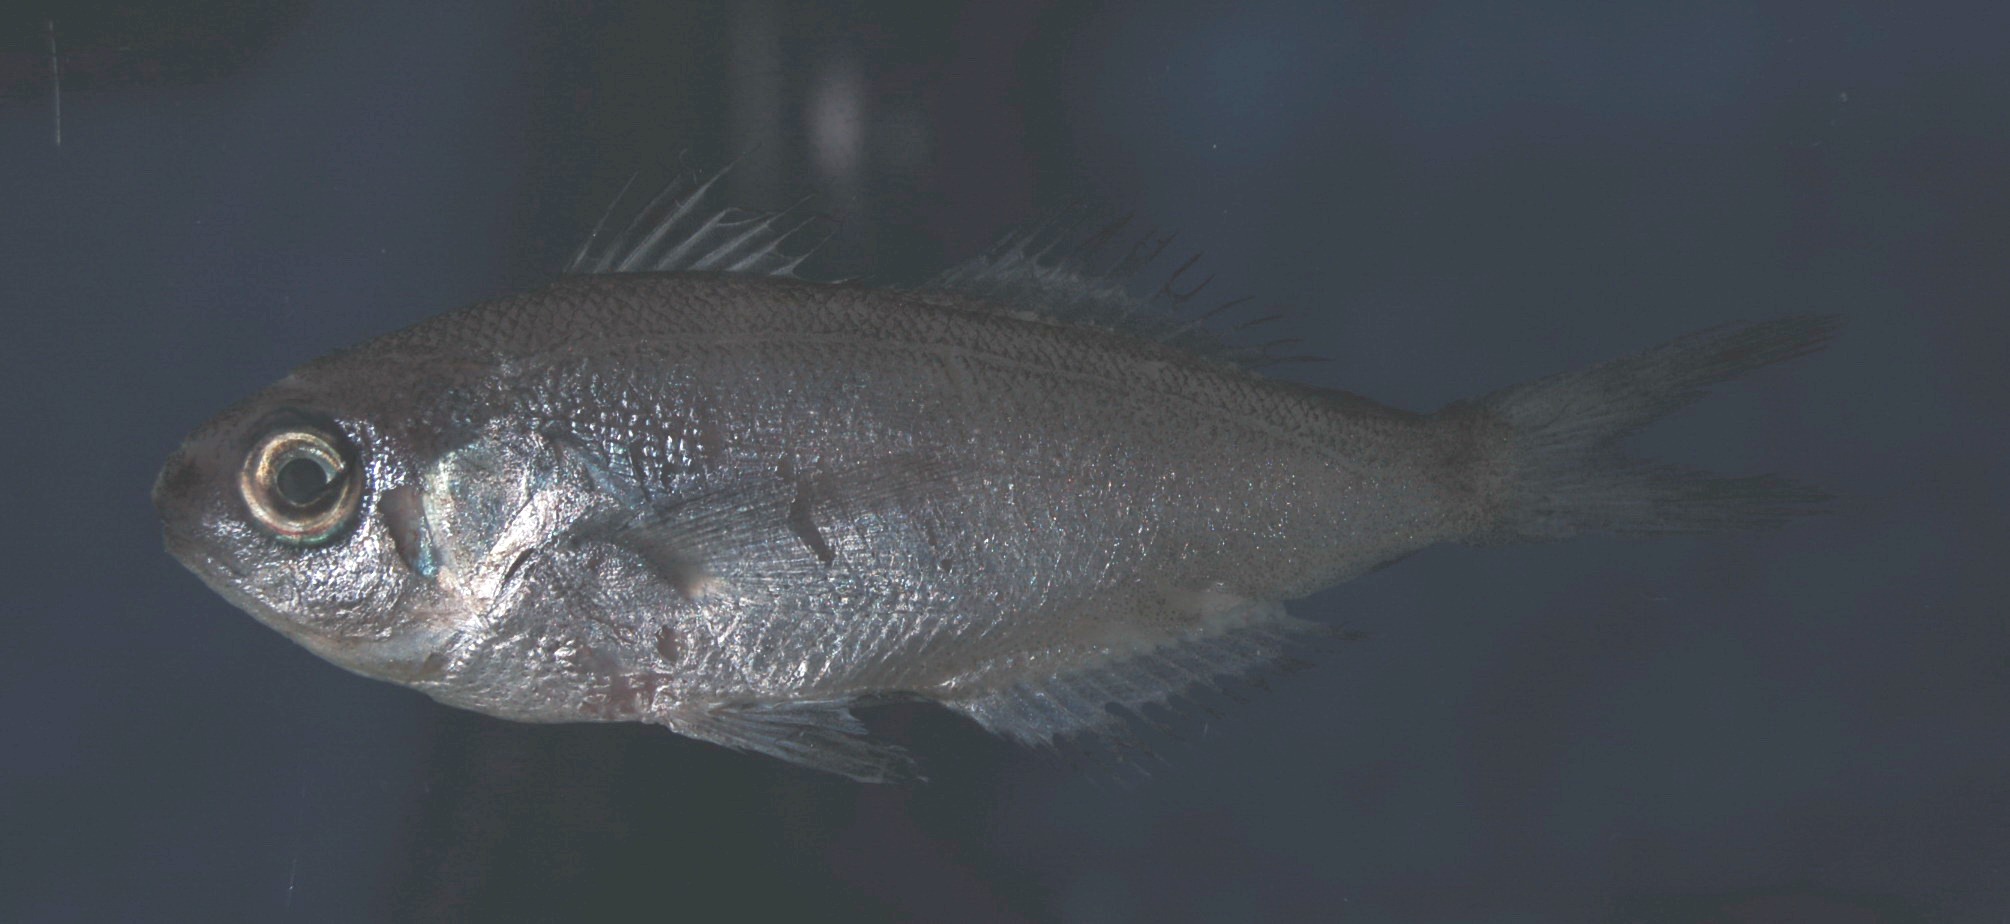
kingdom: Animalia
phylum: Chordata
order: Perciformes
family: Nomeidae
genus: Cubiceps
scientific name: Cubiceps whiteleggii
